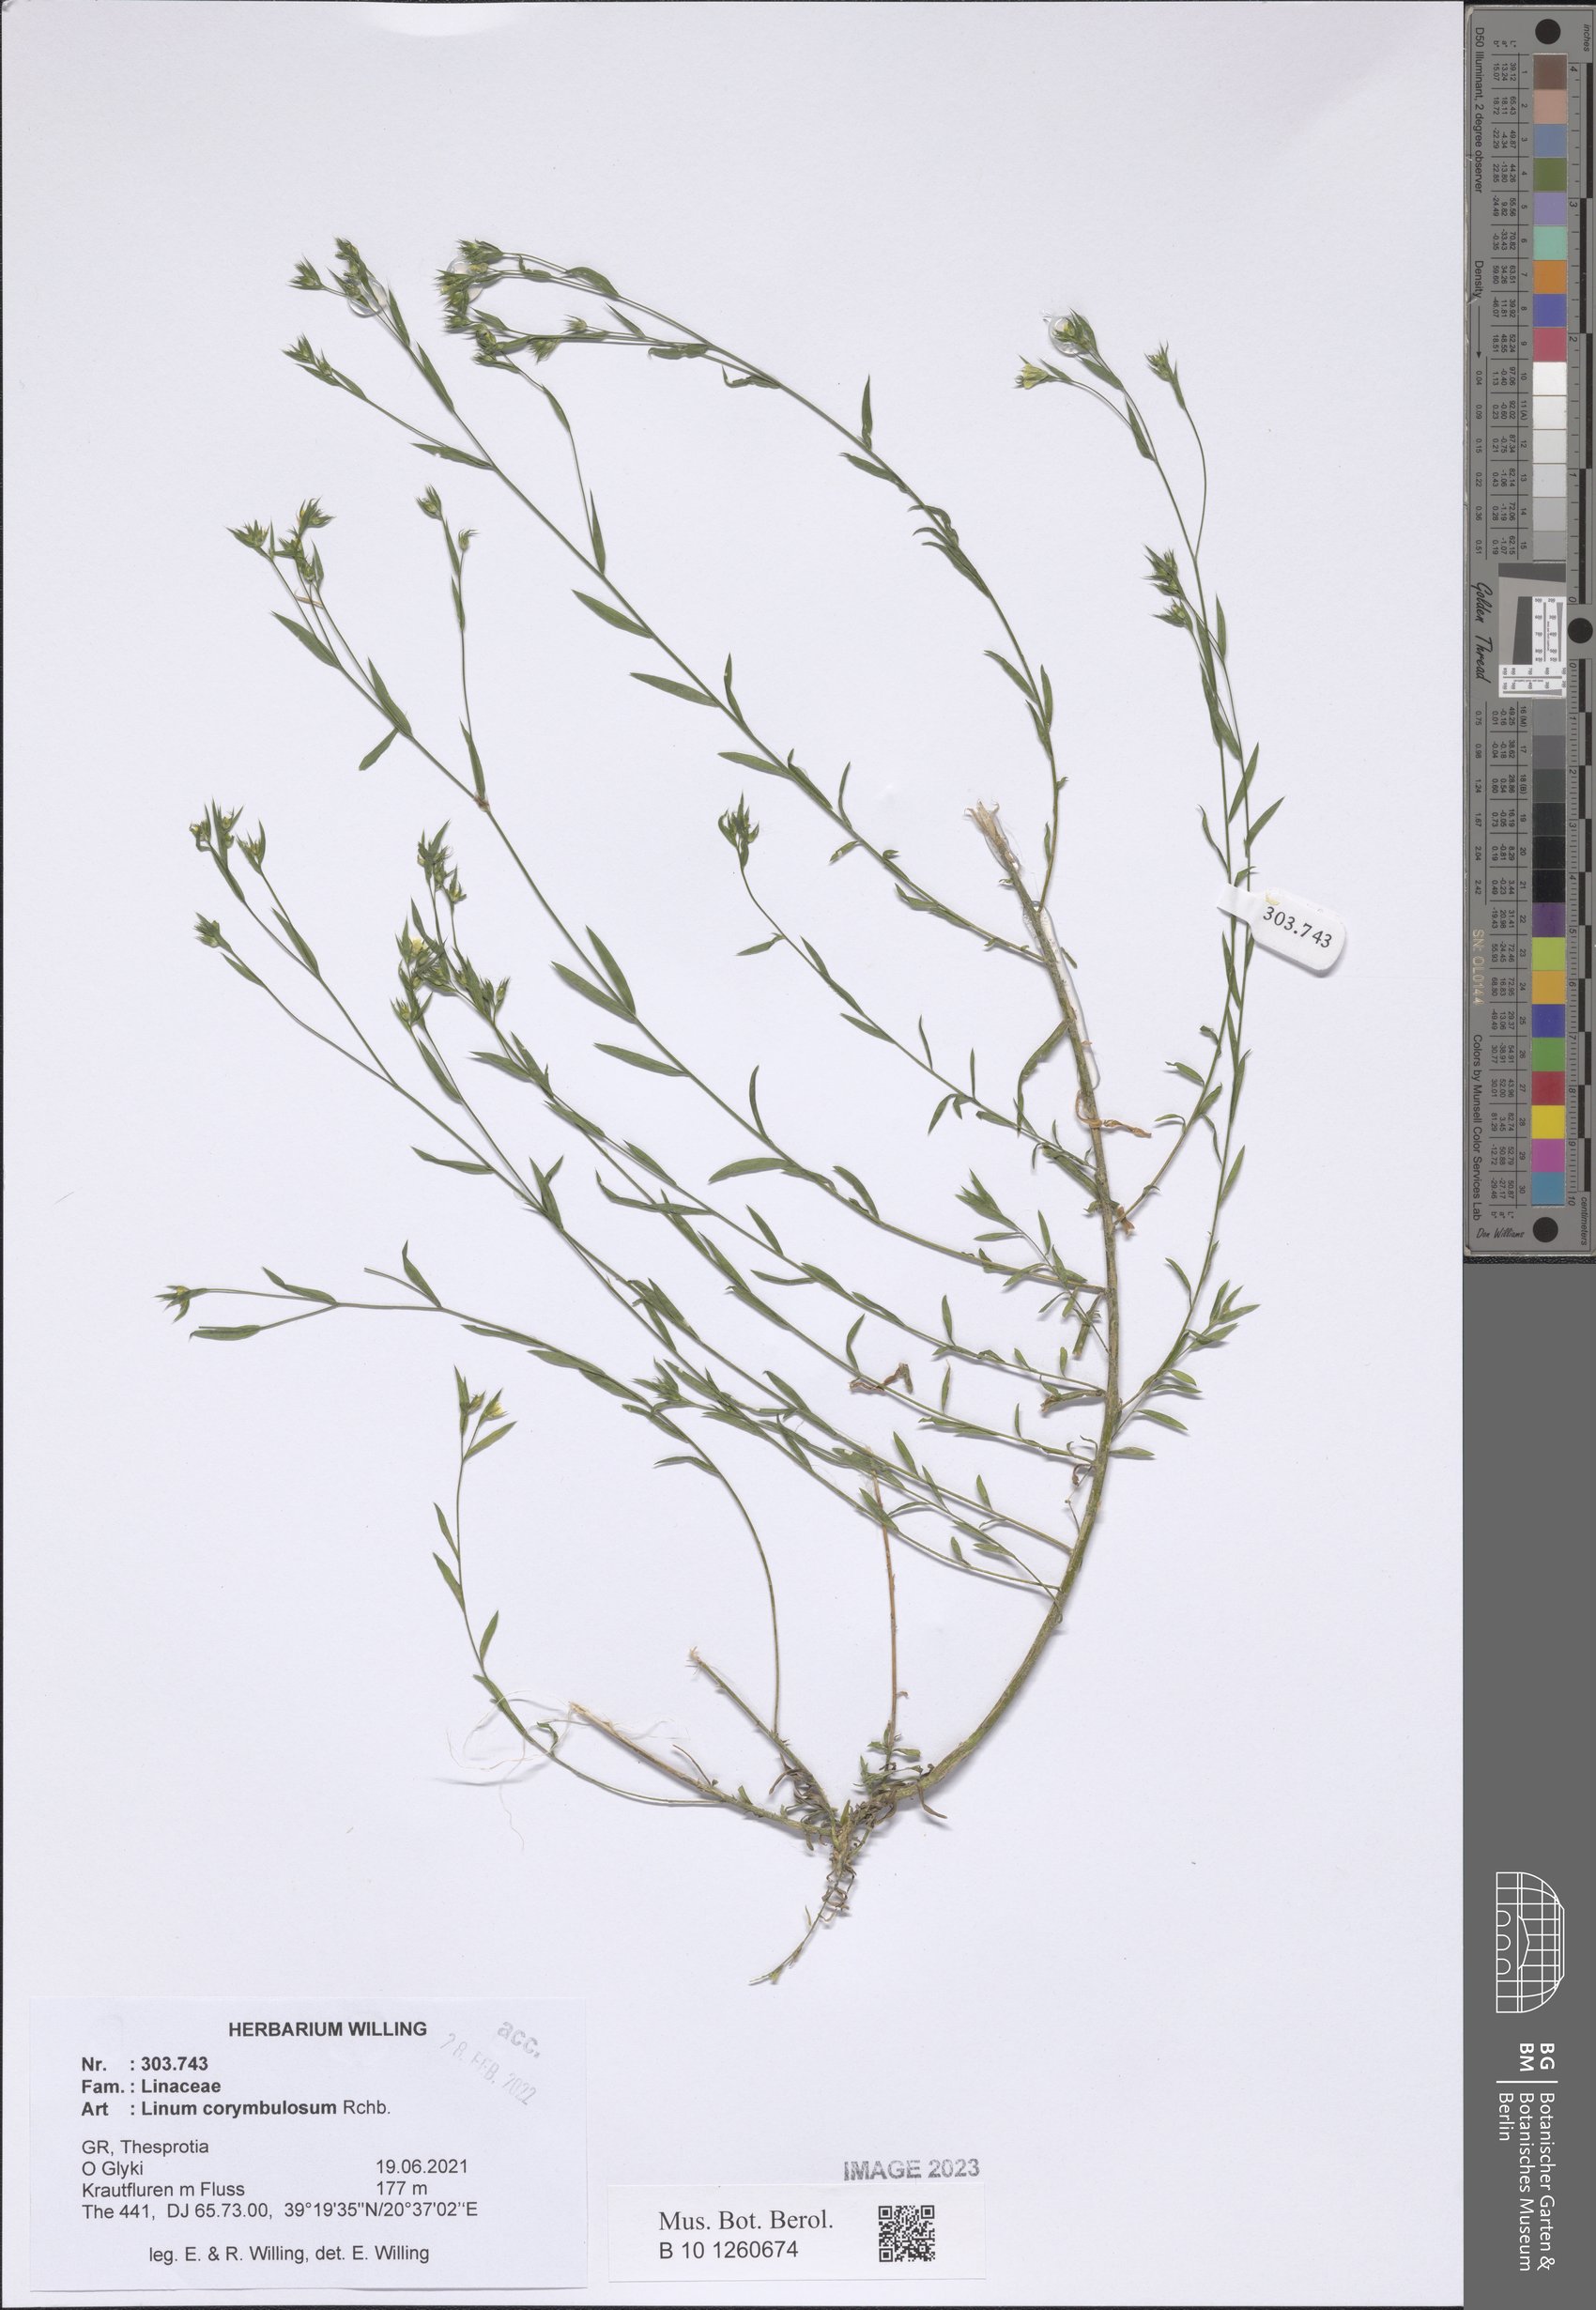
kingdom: Plantae
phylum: Tracheophyta
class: Magnoliopsida
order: Malpighiales
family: Linaceae
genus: Linum
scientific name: Linum corymbulosum
